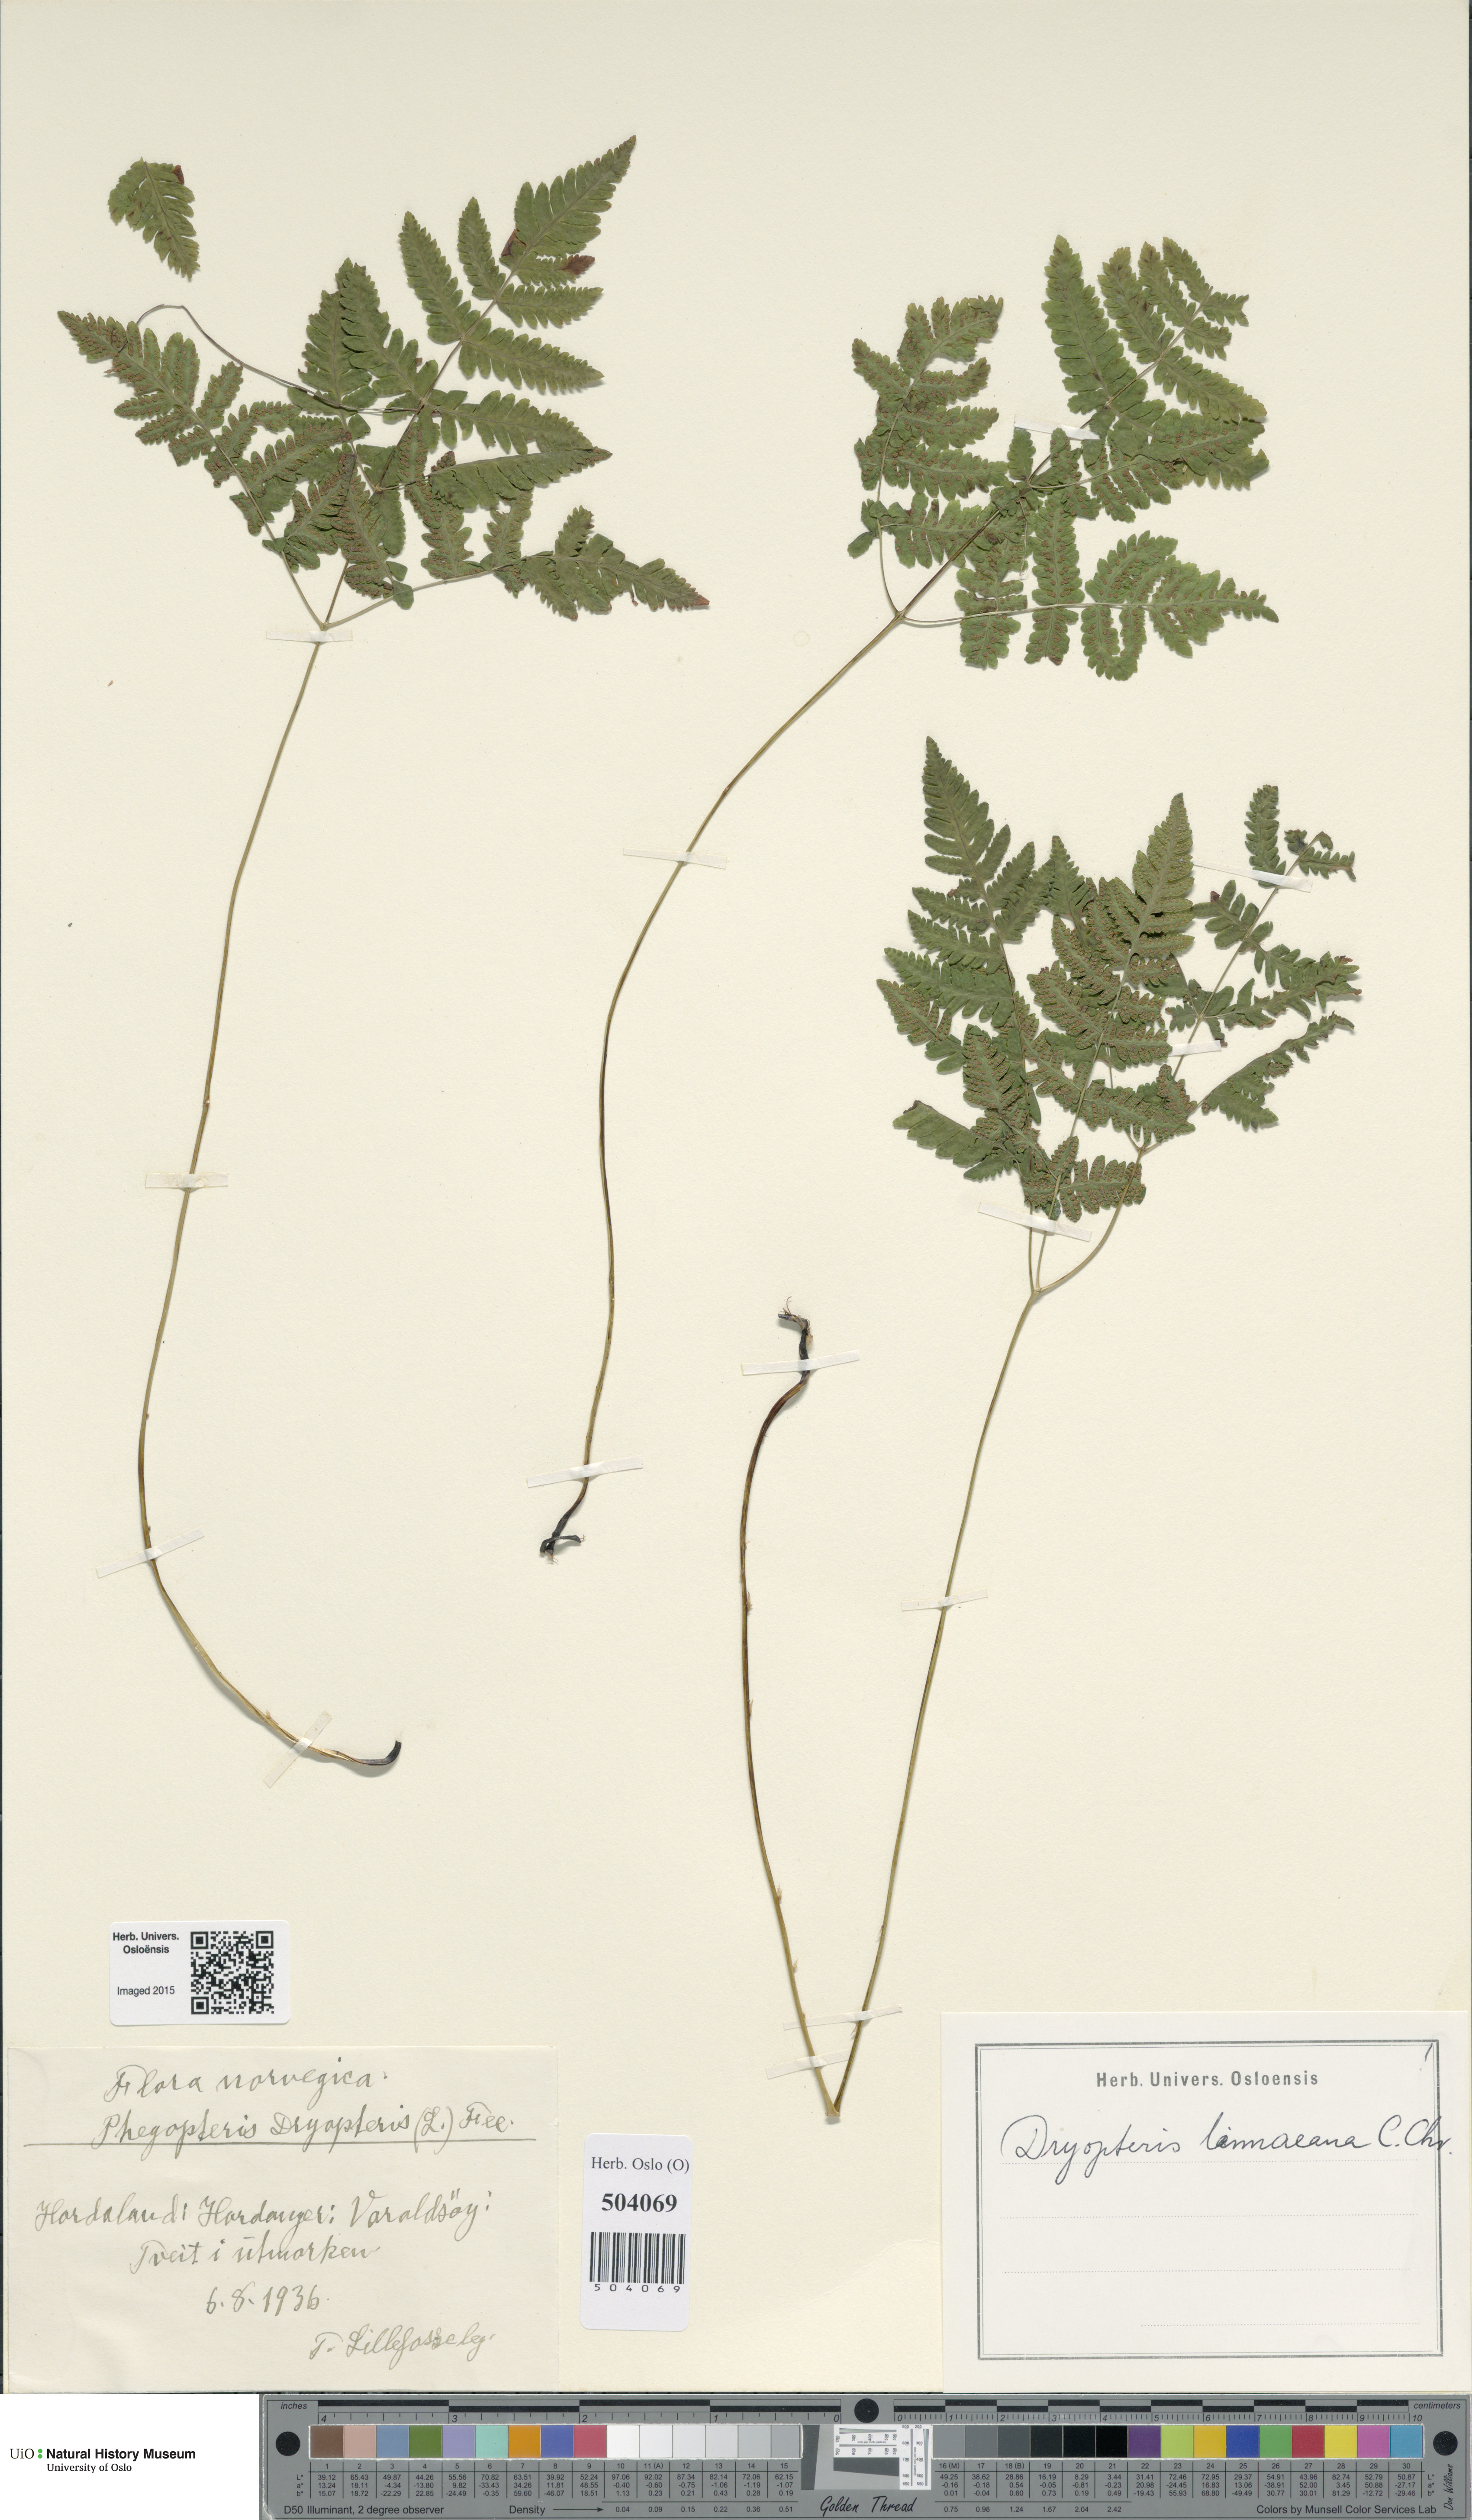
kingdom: Plantae
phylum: Tracheophyta
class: Polypodiopsida
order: Polypodiales
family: Cystopteridaceae
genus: Gymnocarpium
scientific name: Gymnocarpium dryopteris
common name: Oak fern
